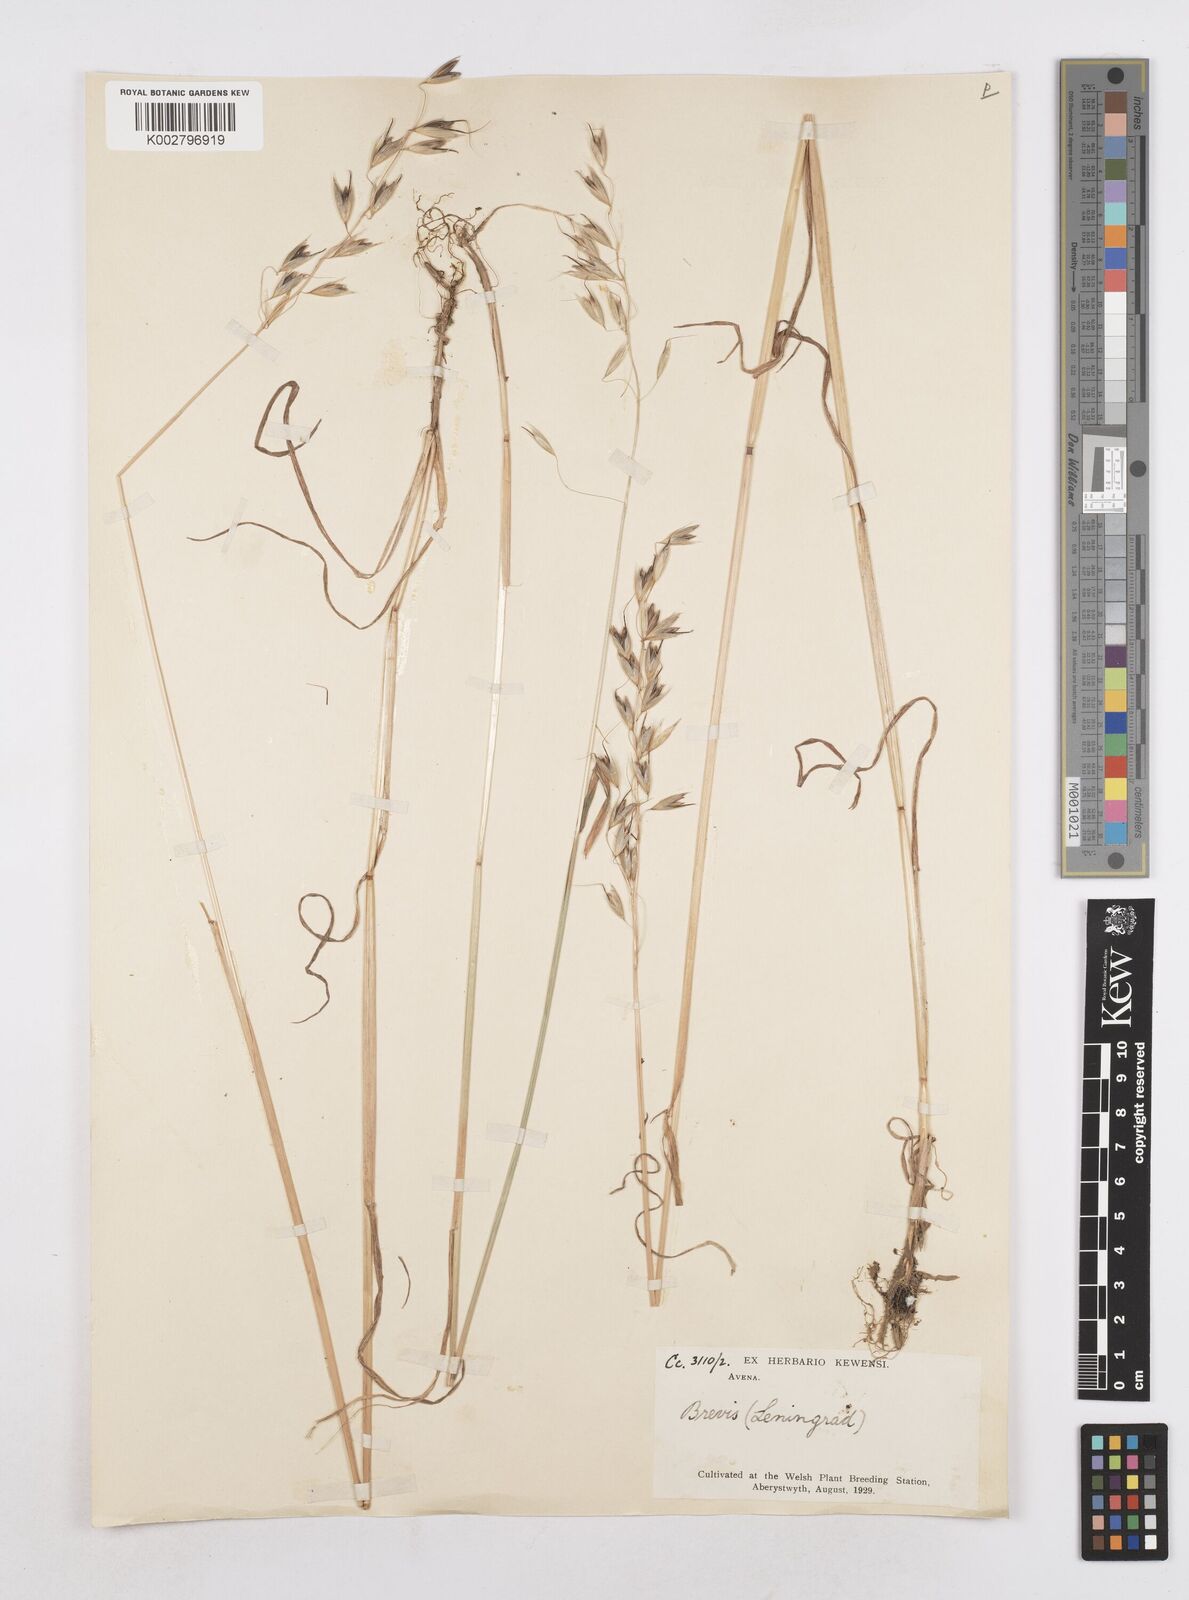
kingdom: Plantae
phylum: Tracheophyta
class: Liliopsida
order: Poales
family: Poaceae
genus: Avena
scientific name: Avena brevis
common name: Short oat
